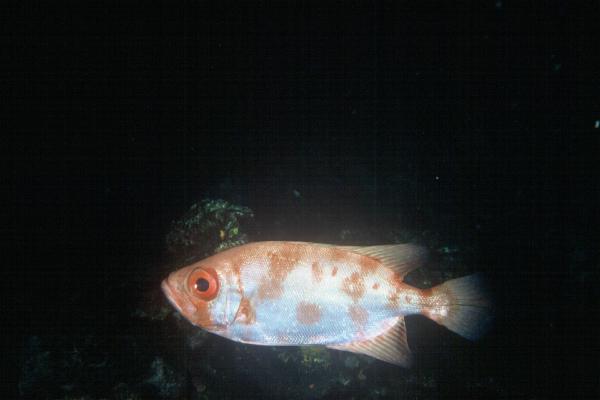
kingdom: Animalia
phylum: Chordata
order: Perciformes
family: Priacanthidae
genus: Priacanthus
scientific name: Priacanthus blochii
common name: Paeony bulleye
